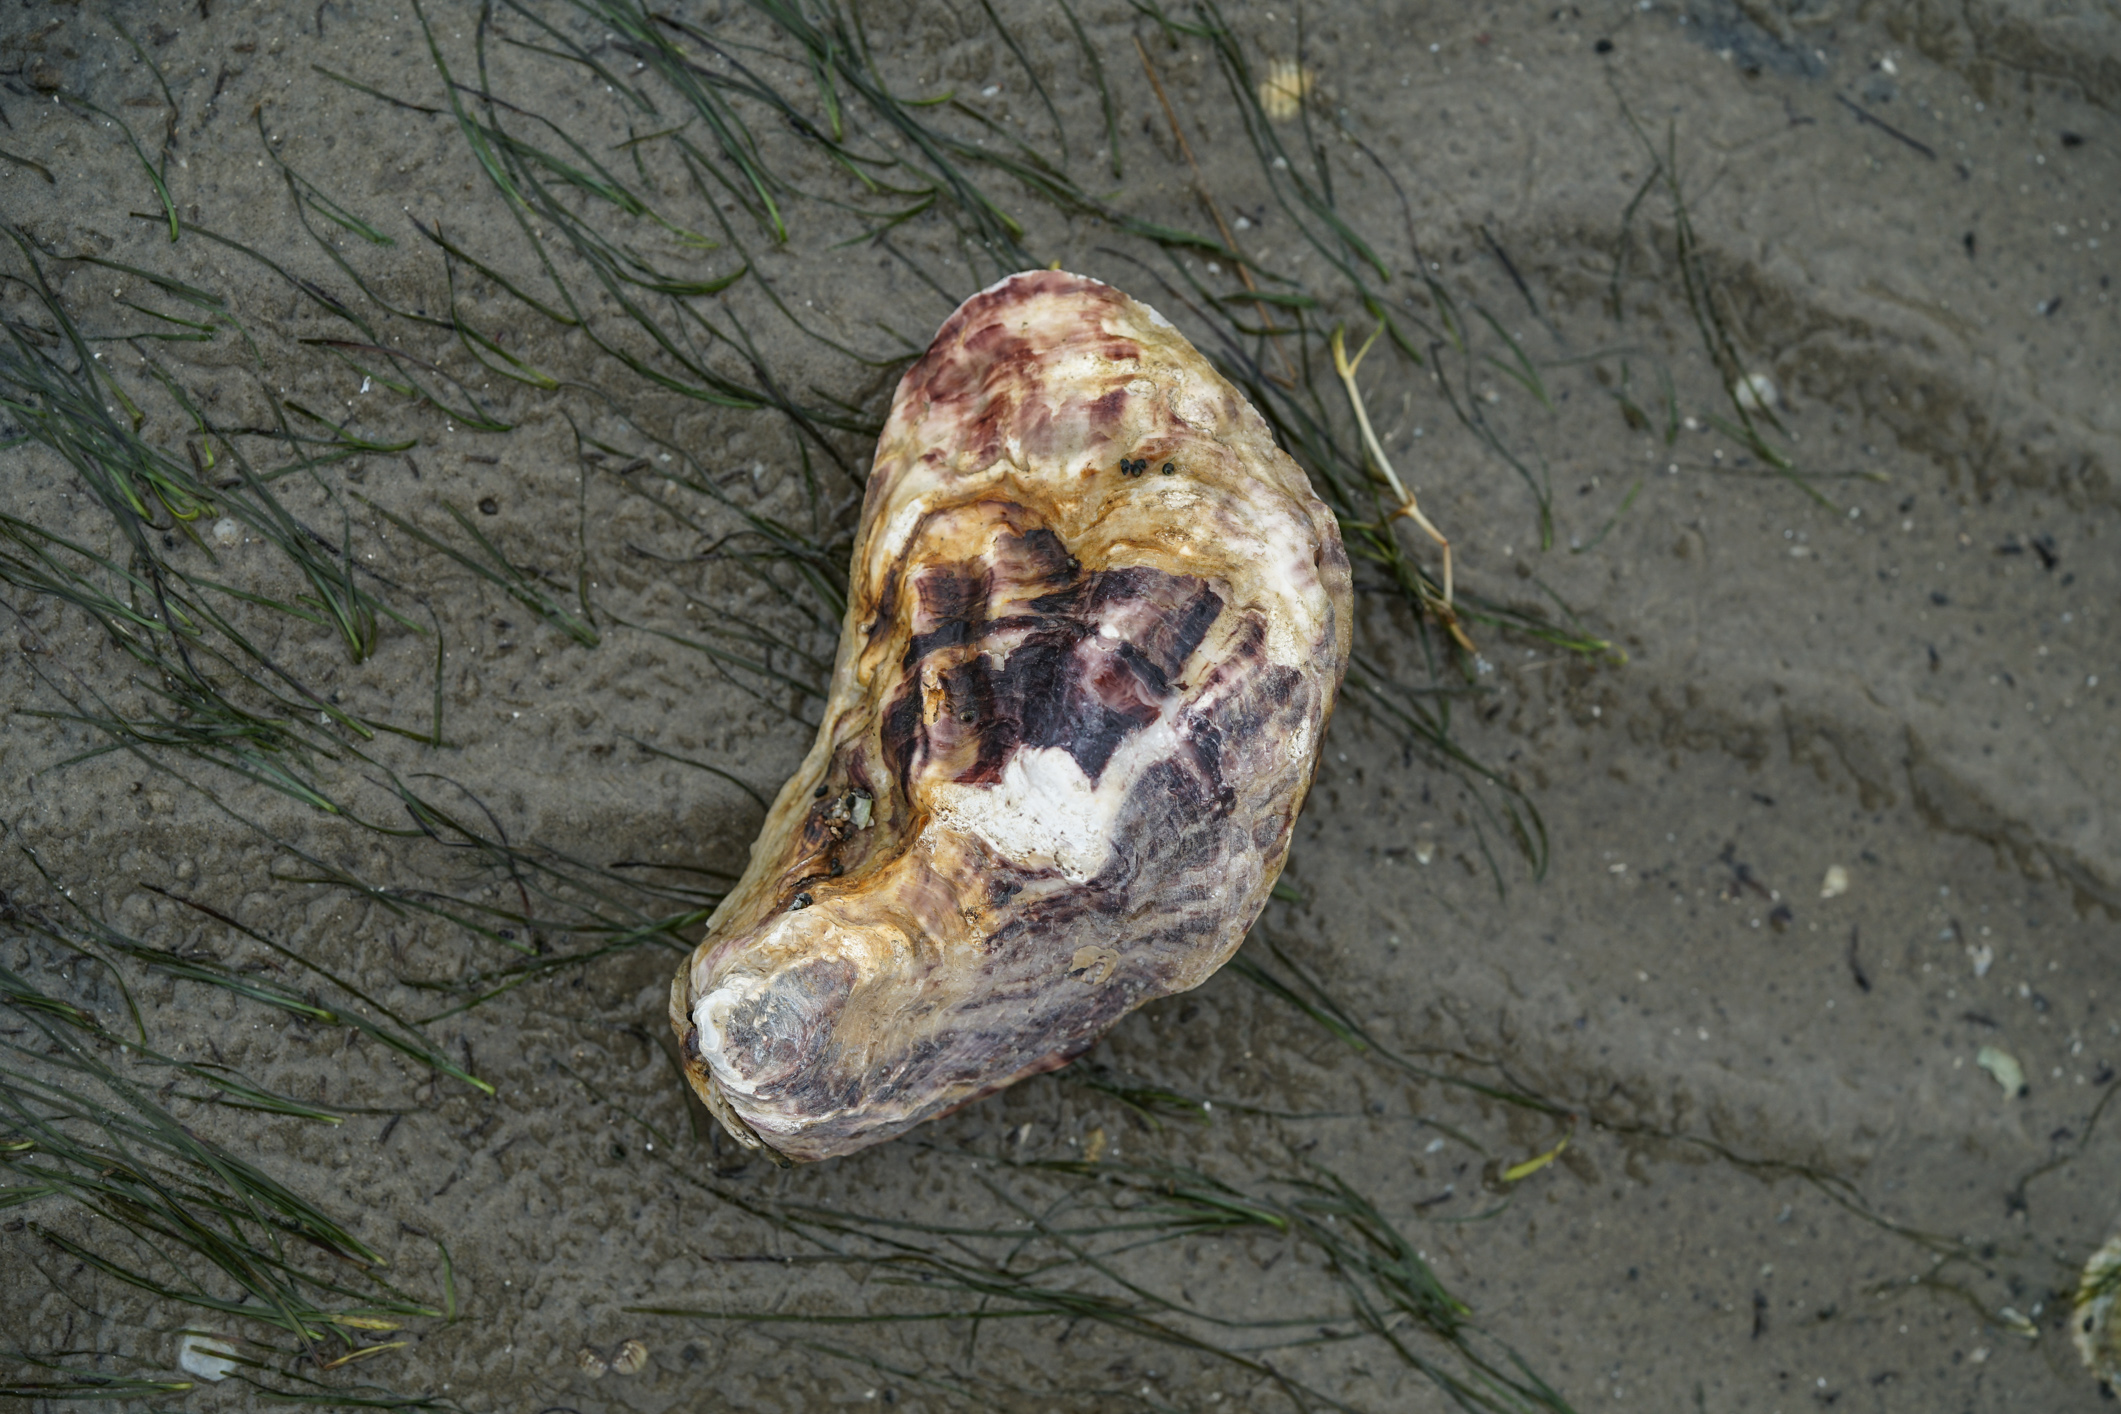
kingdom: Animalia
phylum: Mollusca
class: Bivalvia
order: Ostreida
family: Ostreidae
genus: Magallana
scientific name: Magallana gigas
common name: Pacific oyster
